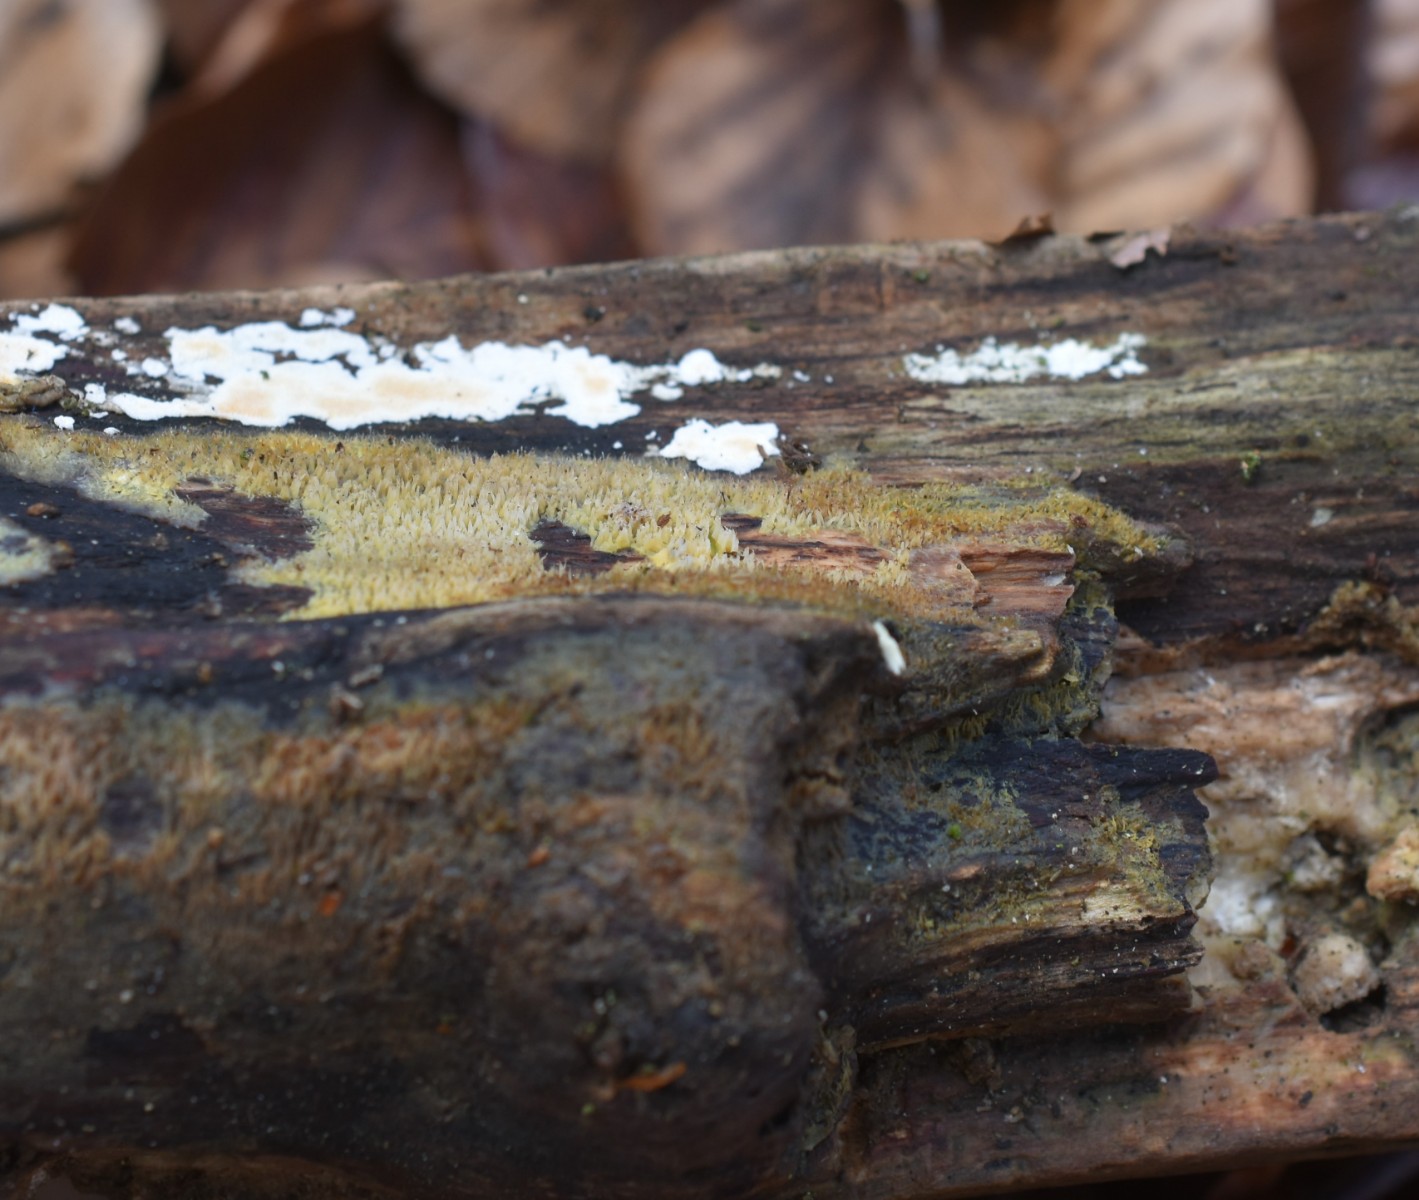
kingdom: Fungi
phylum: Basidiomycota
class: Agaricomycetes
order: Polyporales
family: Meruliaceae
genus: Mycoacia
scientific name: Mycoacia uda
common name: citrongul vokspig
